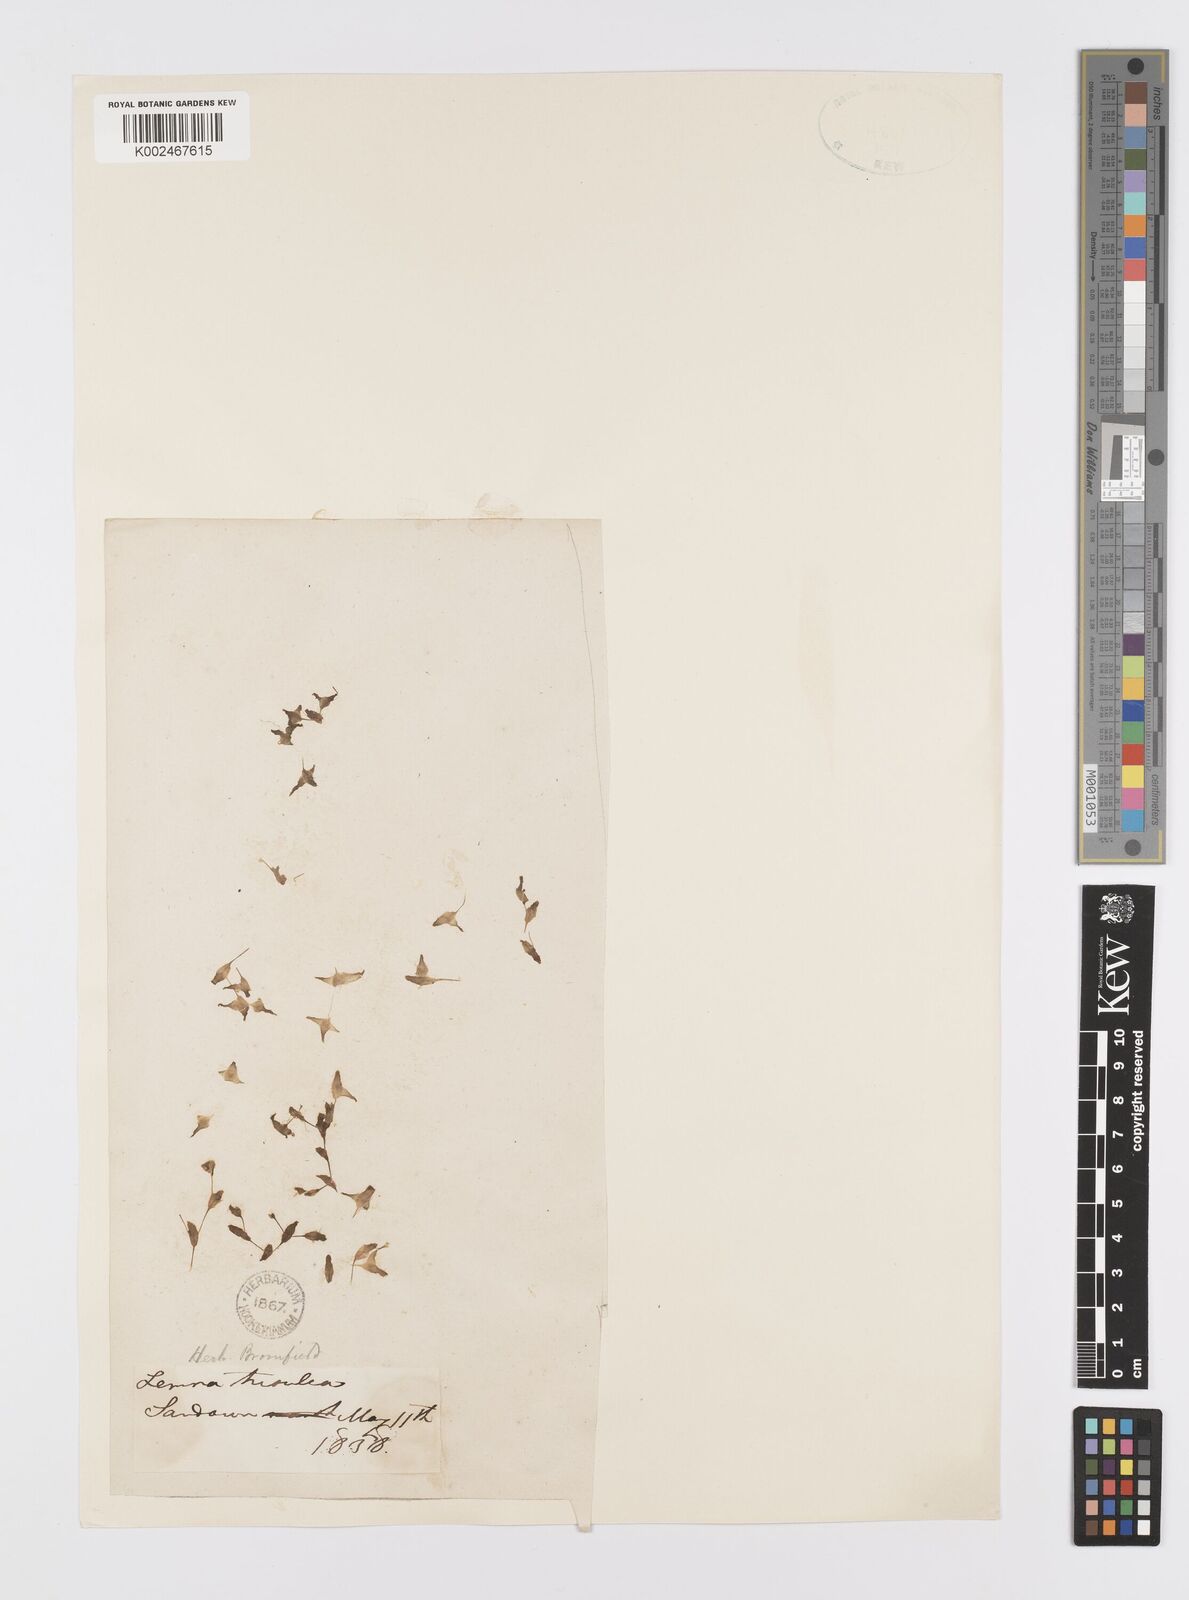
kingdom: Plantae
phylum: Tracheophyta
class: Liliopsida
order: Alismatales
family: Araceae
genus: Lemna
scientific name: Lemna trisulca
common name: Ivy-leaved duckweed
